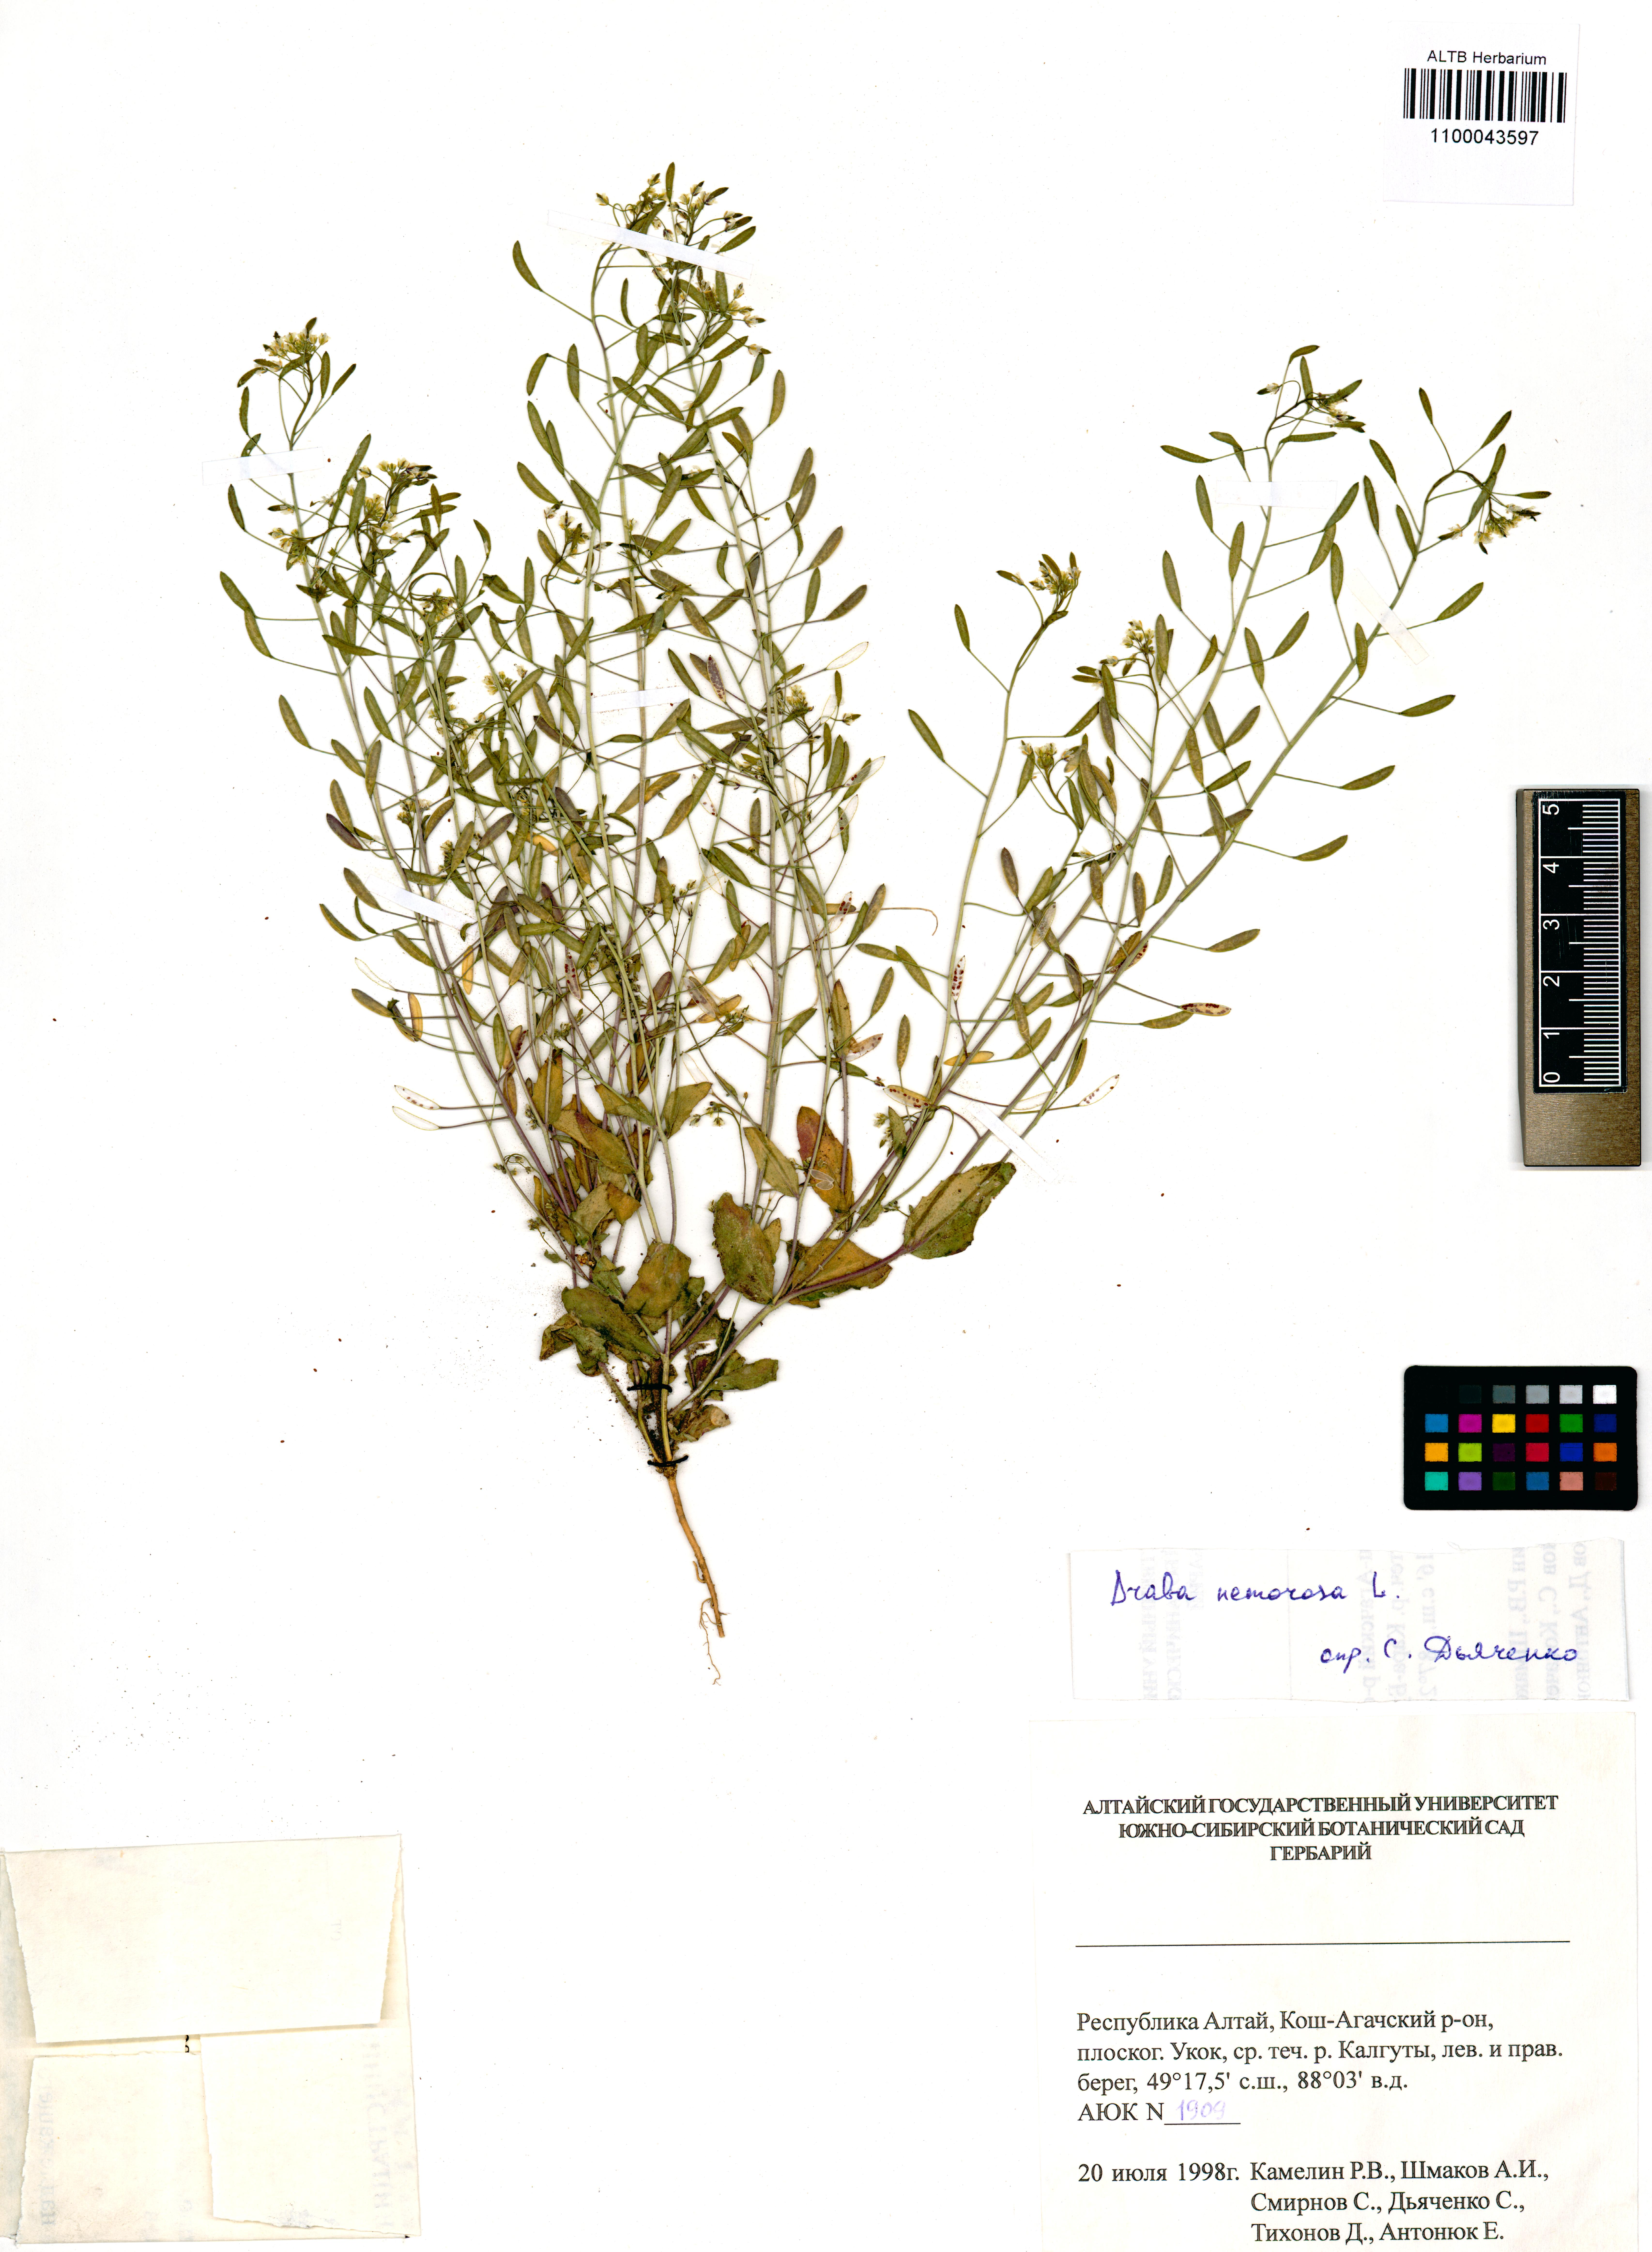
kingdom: Plantae
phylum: Tracheophyta
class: Magnoliopsida
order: Brassicales
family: Brassicaceae
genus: Draba
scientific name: Draba nemorosa
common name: Wood whitlow-grass
